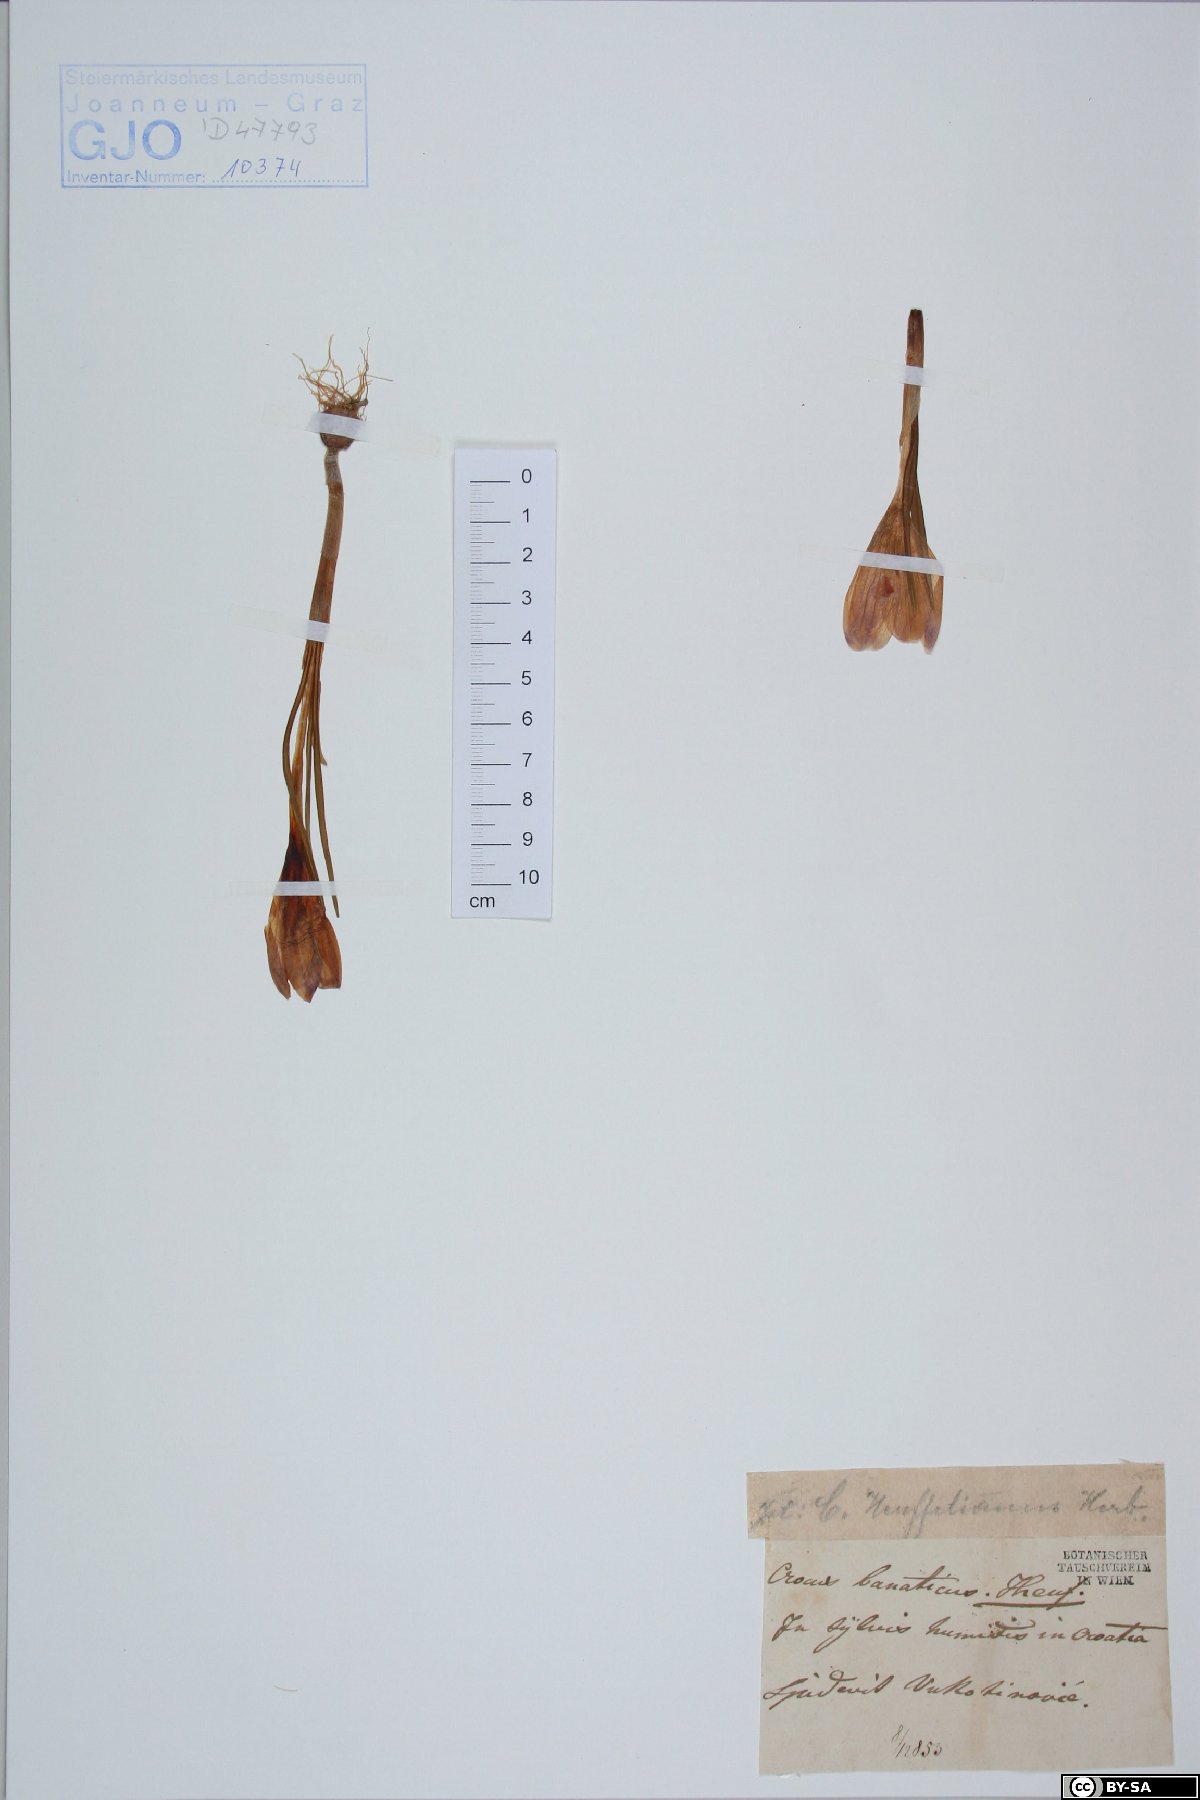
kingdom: Plantae
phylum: Tracheophyta
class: Liliopsida
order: Asparagales
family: Iridaceae
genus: Crocus
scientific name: Crocus heuffelianus
